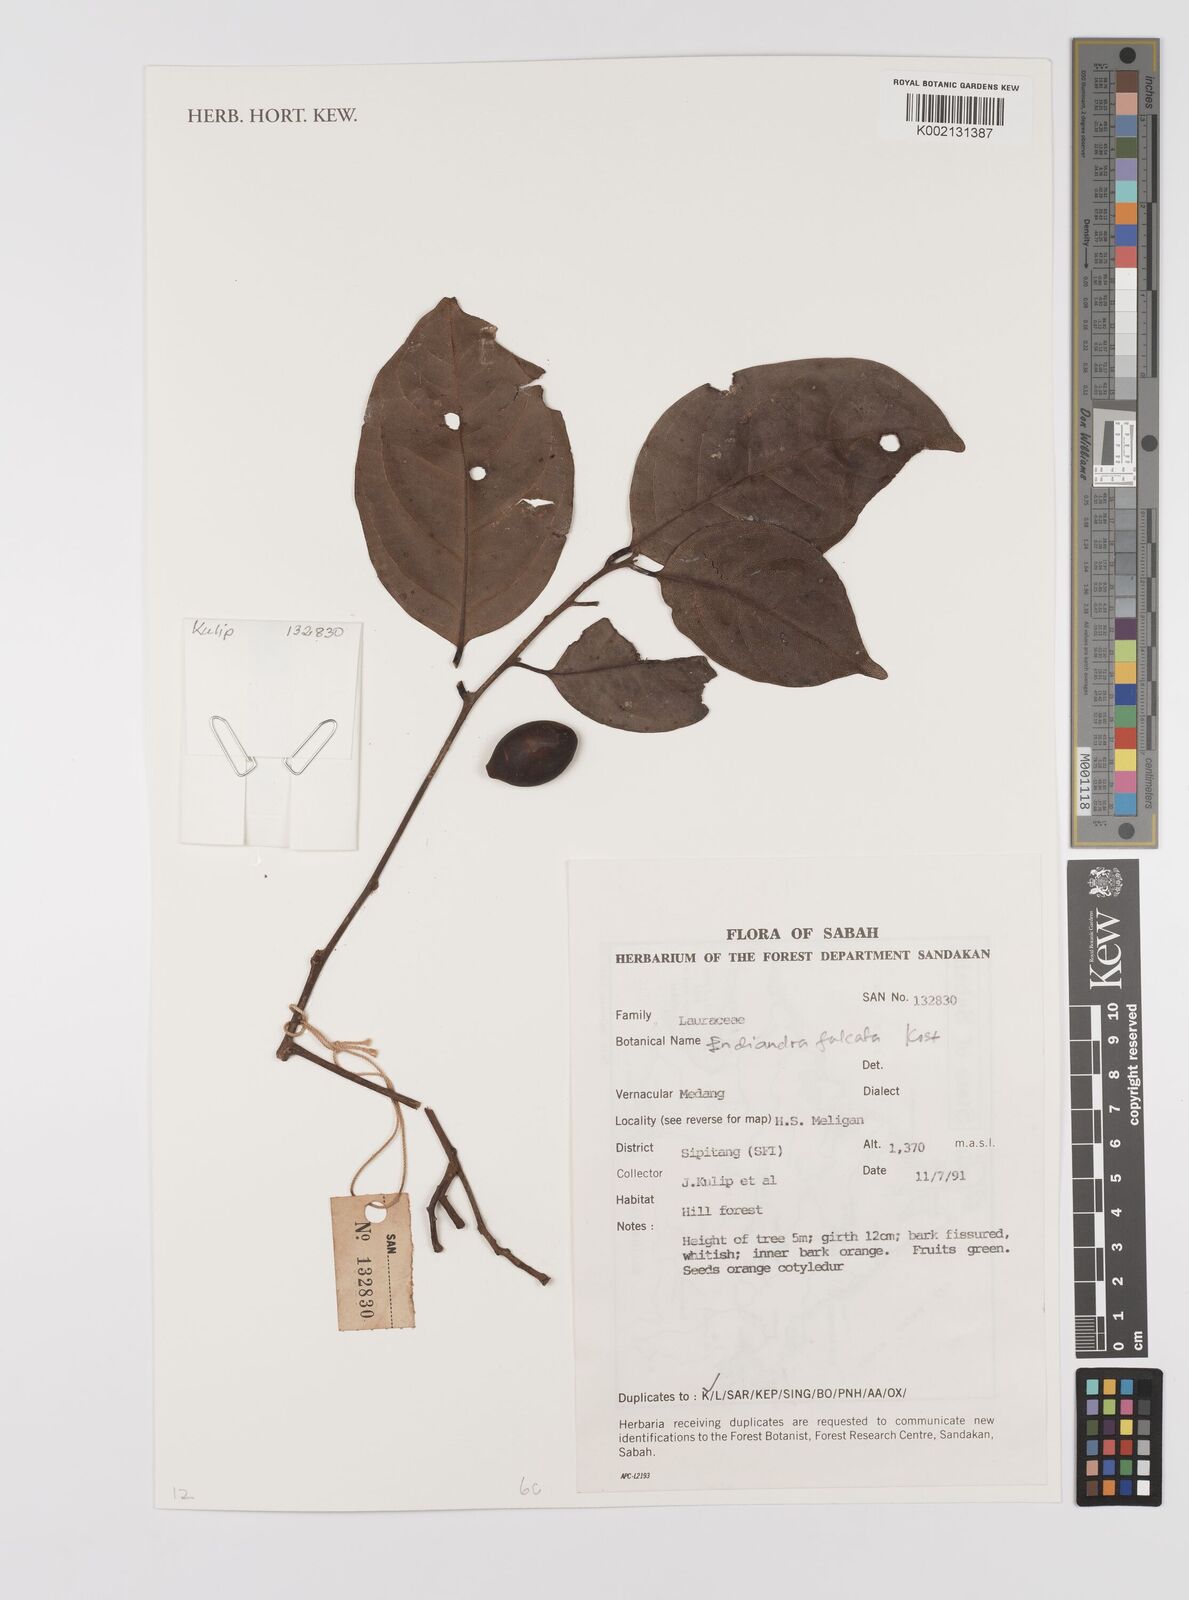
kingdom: Plantae
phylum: Tracheophyta
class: Magnoliopsida
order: Laurales
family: Lauraceae
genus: Endiandra
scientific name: Endiandra
